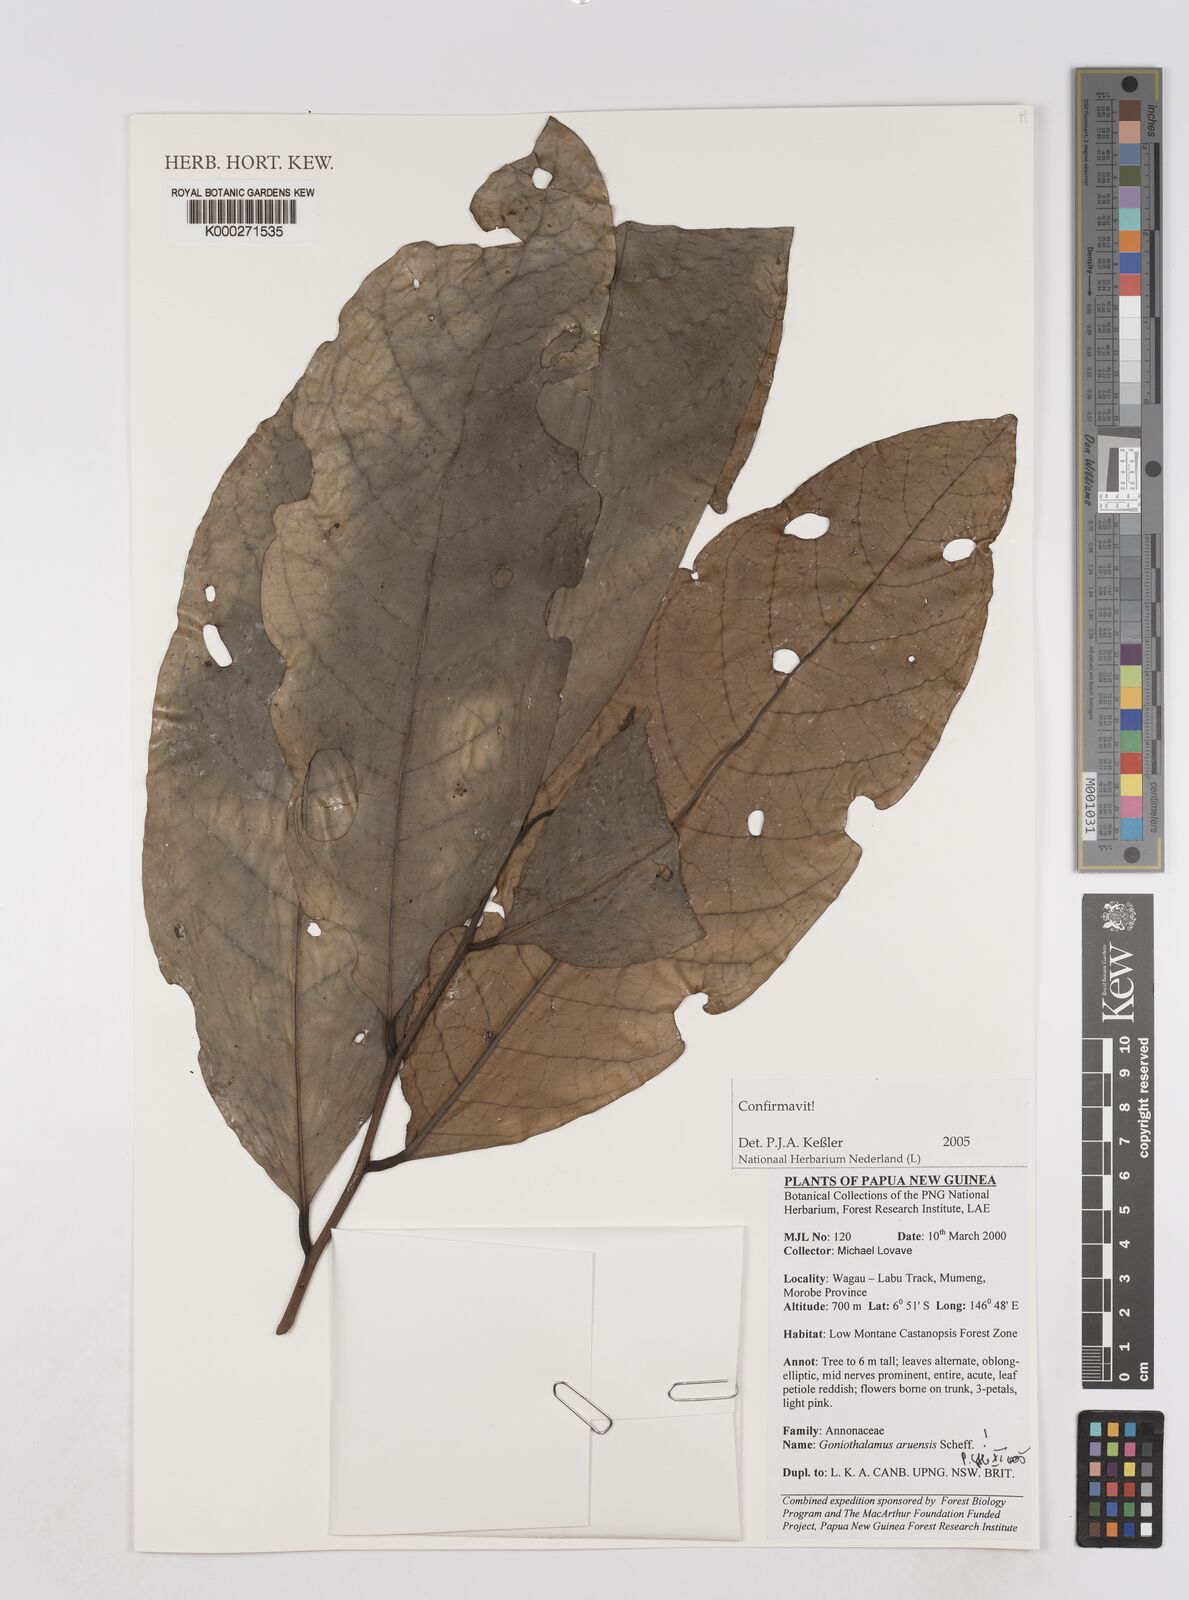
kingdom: Plantae
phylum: Tracheophyta
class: Magnoliopsida
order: Magnoliales
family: Annonaceae
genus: Goniothalamus
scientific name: Goniothalamus aruensis
